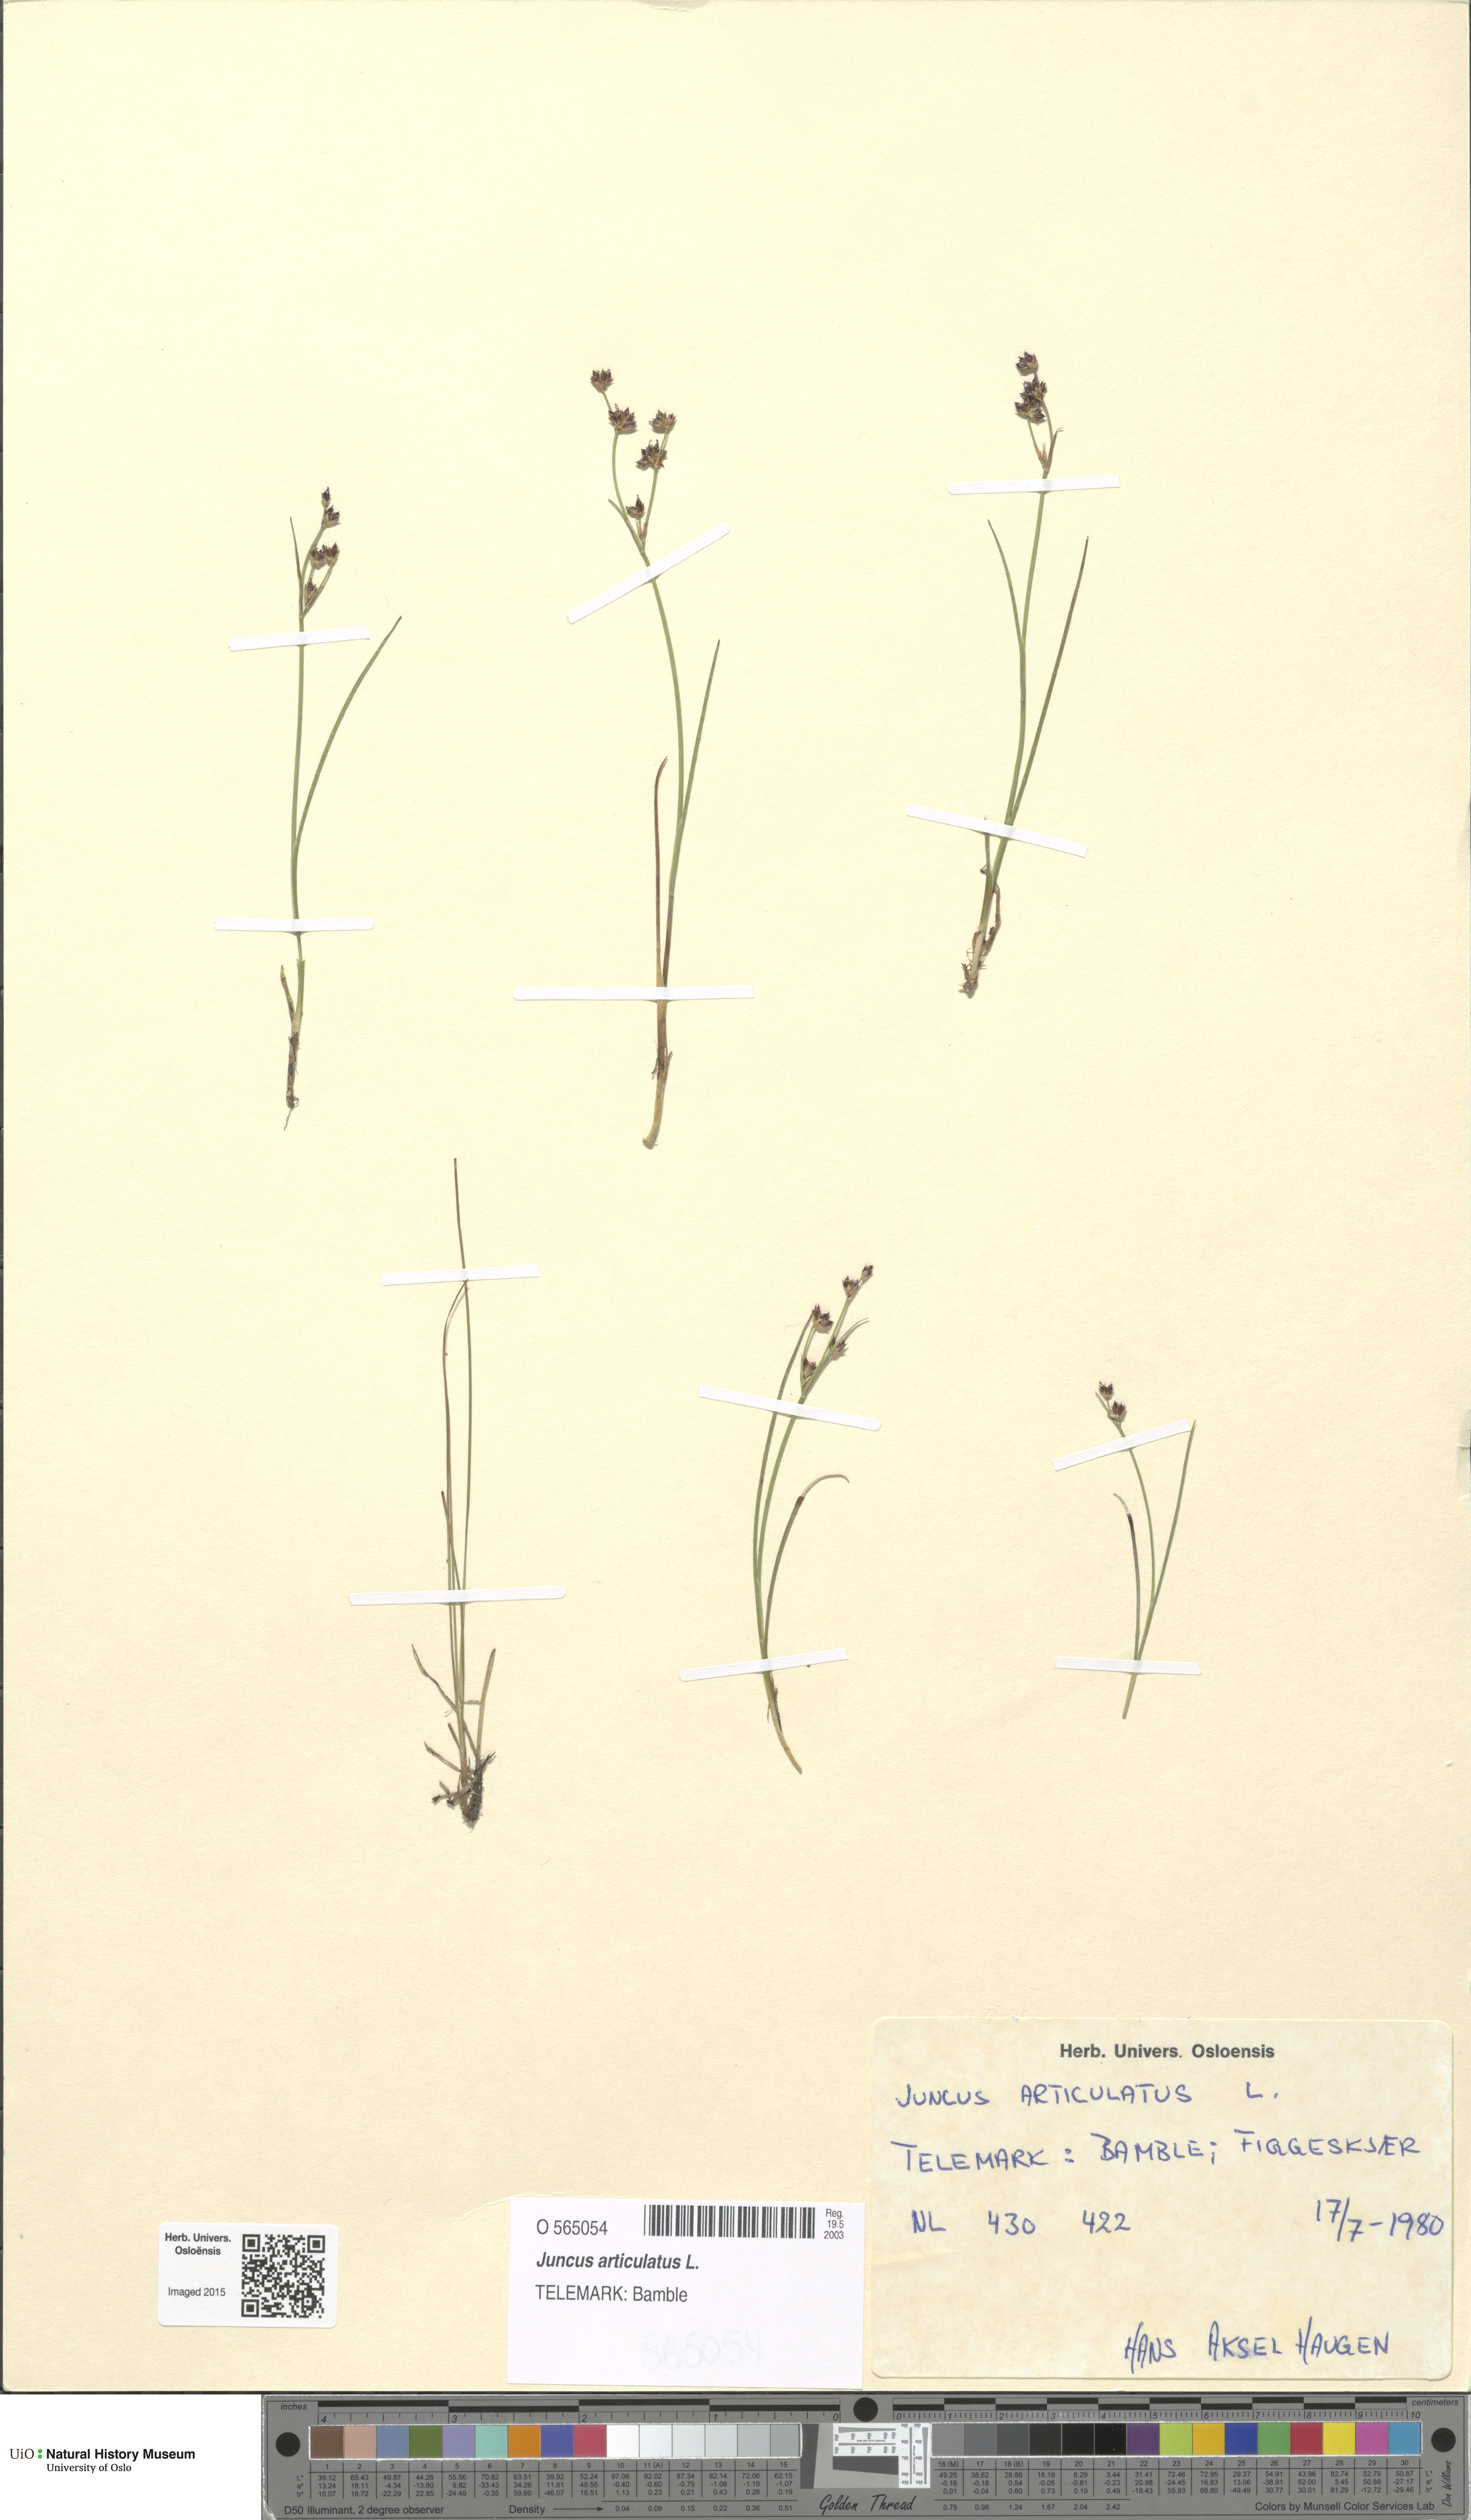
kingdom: Plantae
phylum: Tracheophyta
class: Liliopsida
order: Poales
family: Juncaceae
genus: Juncus
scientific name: Juncus articulatus
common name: Jointed rush
